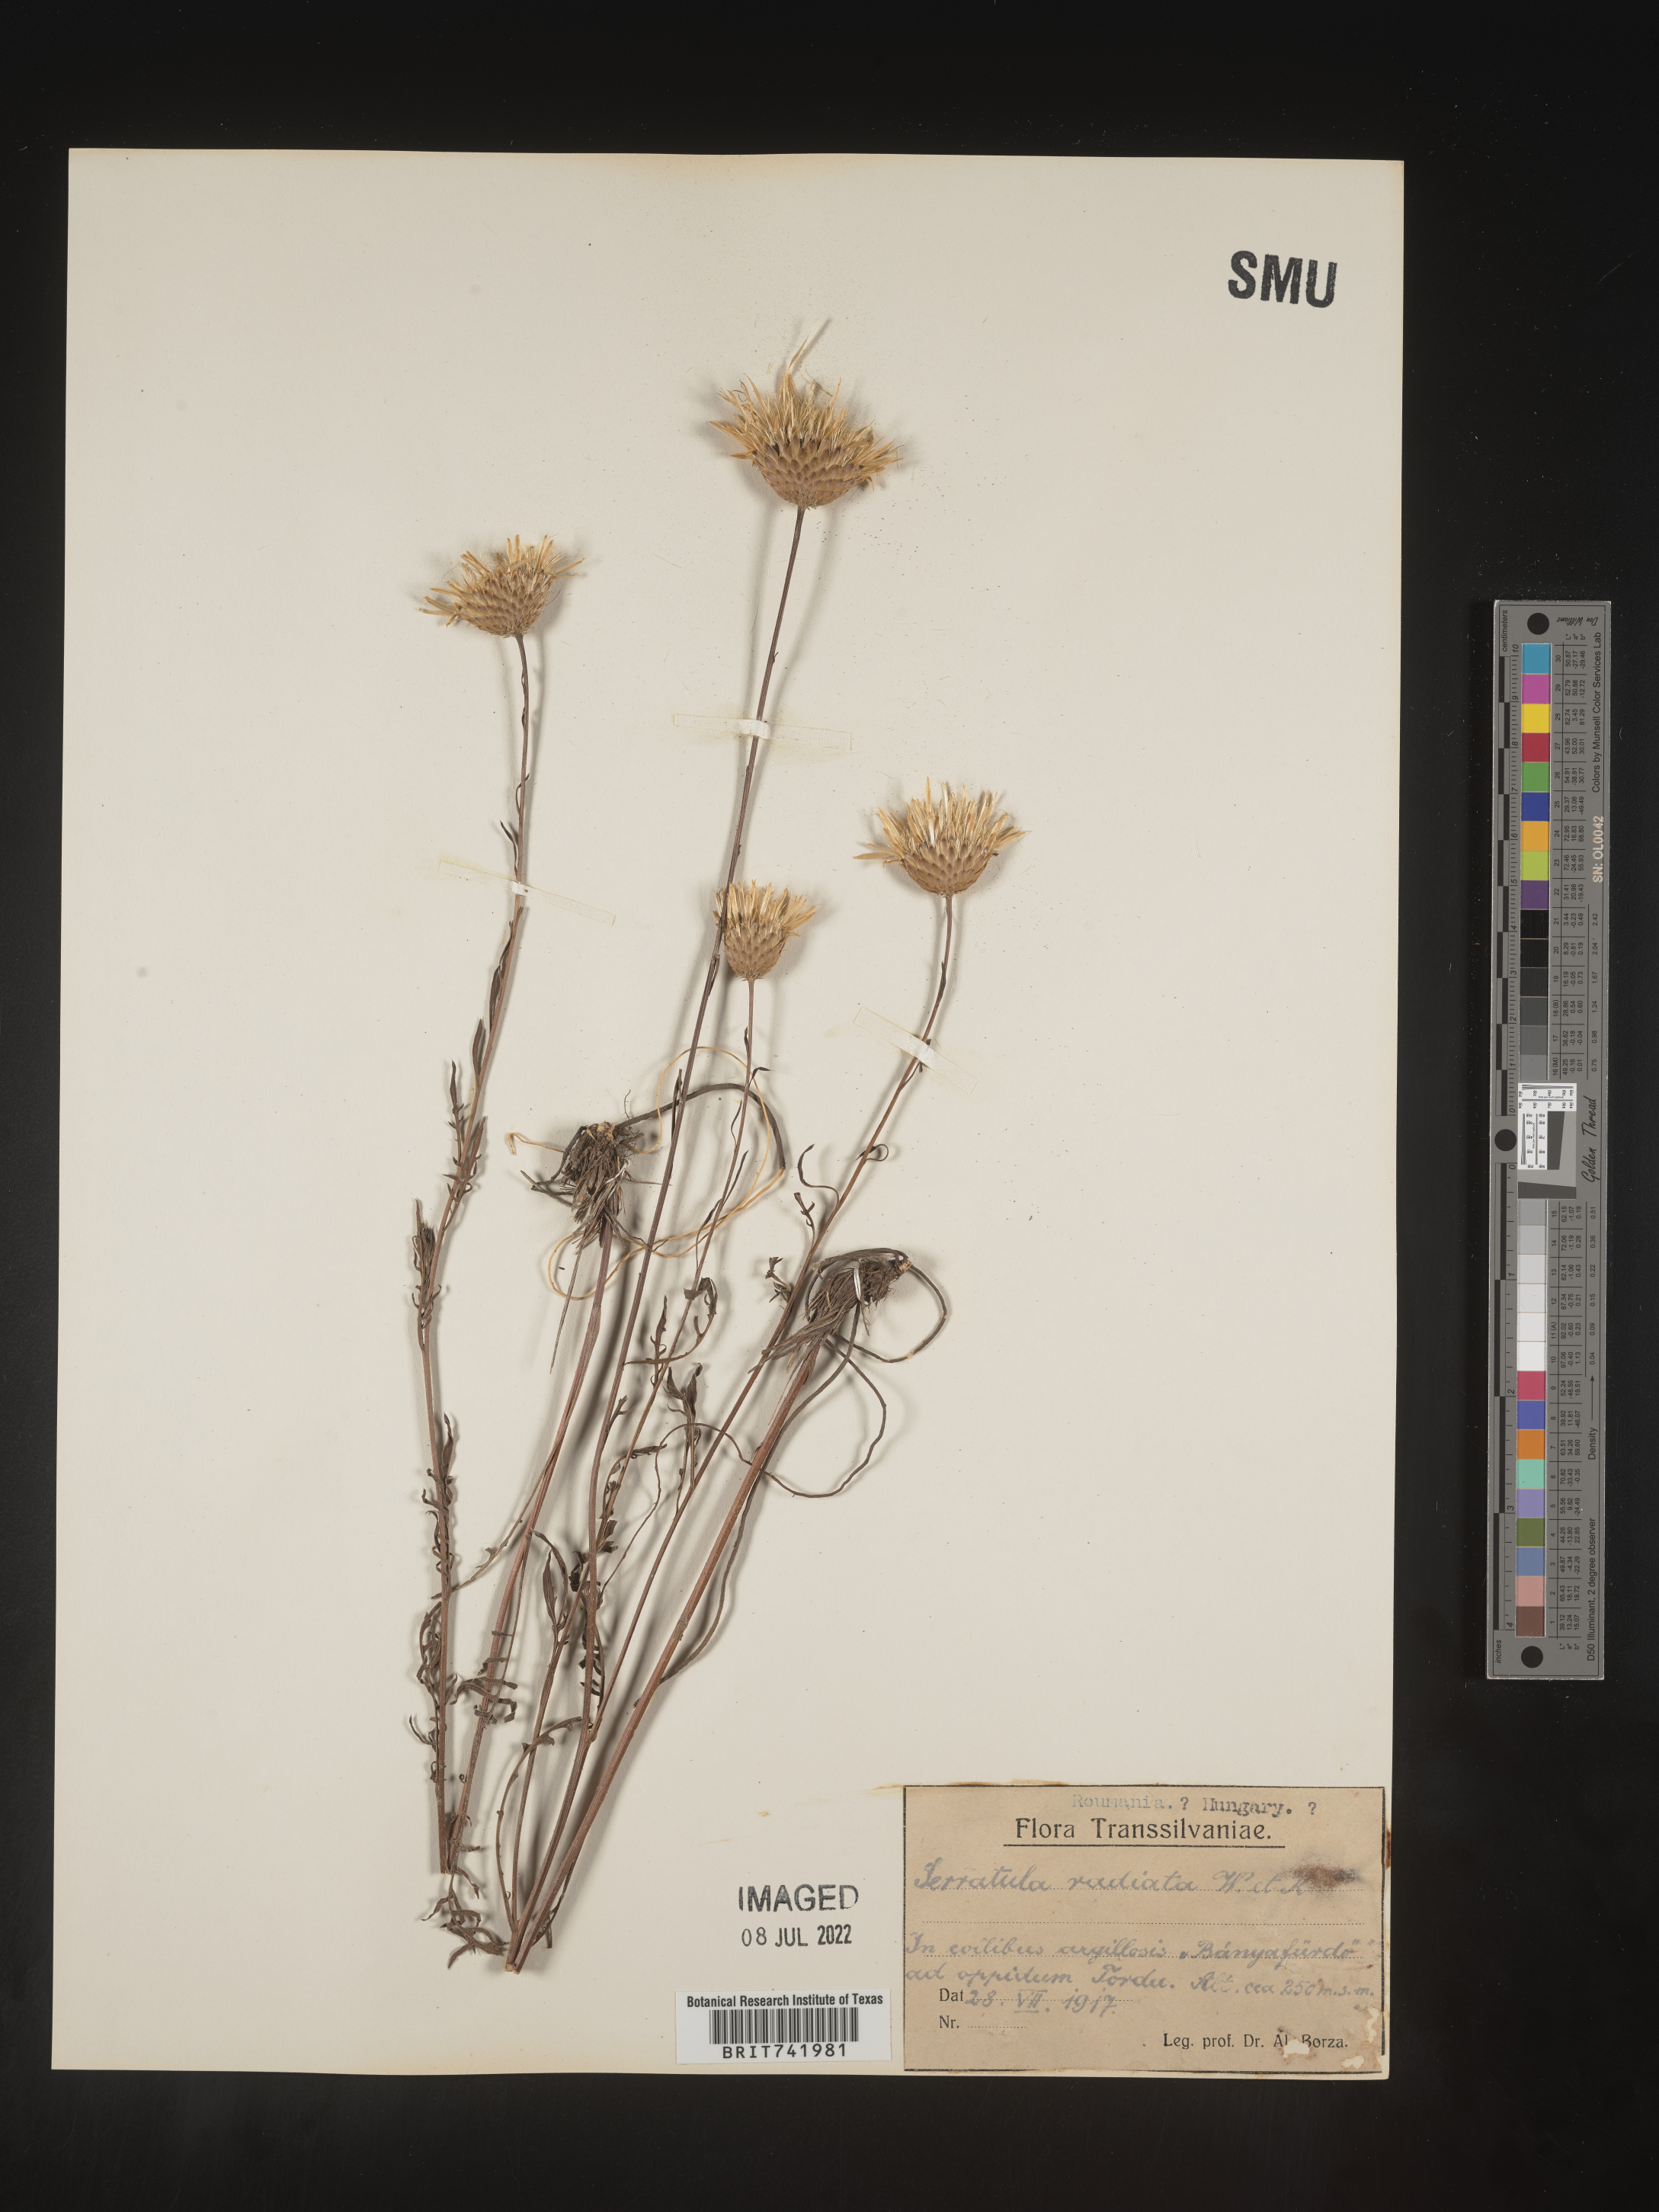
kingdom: Plantae
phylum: Tracheophyta
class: Magnoliopsida
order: Asterales
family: Asteraceae
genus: Serratula
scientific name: Serratula
